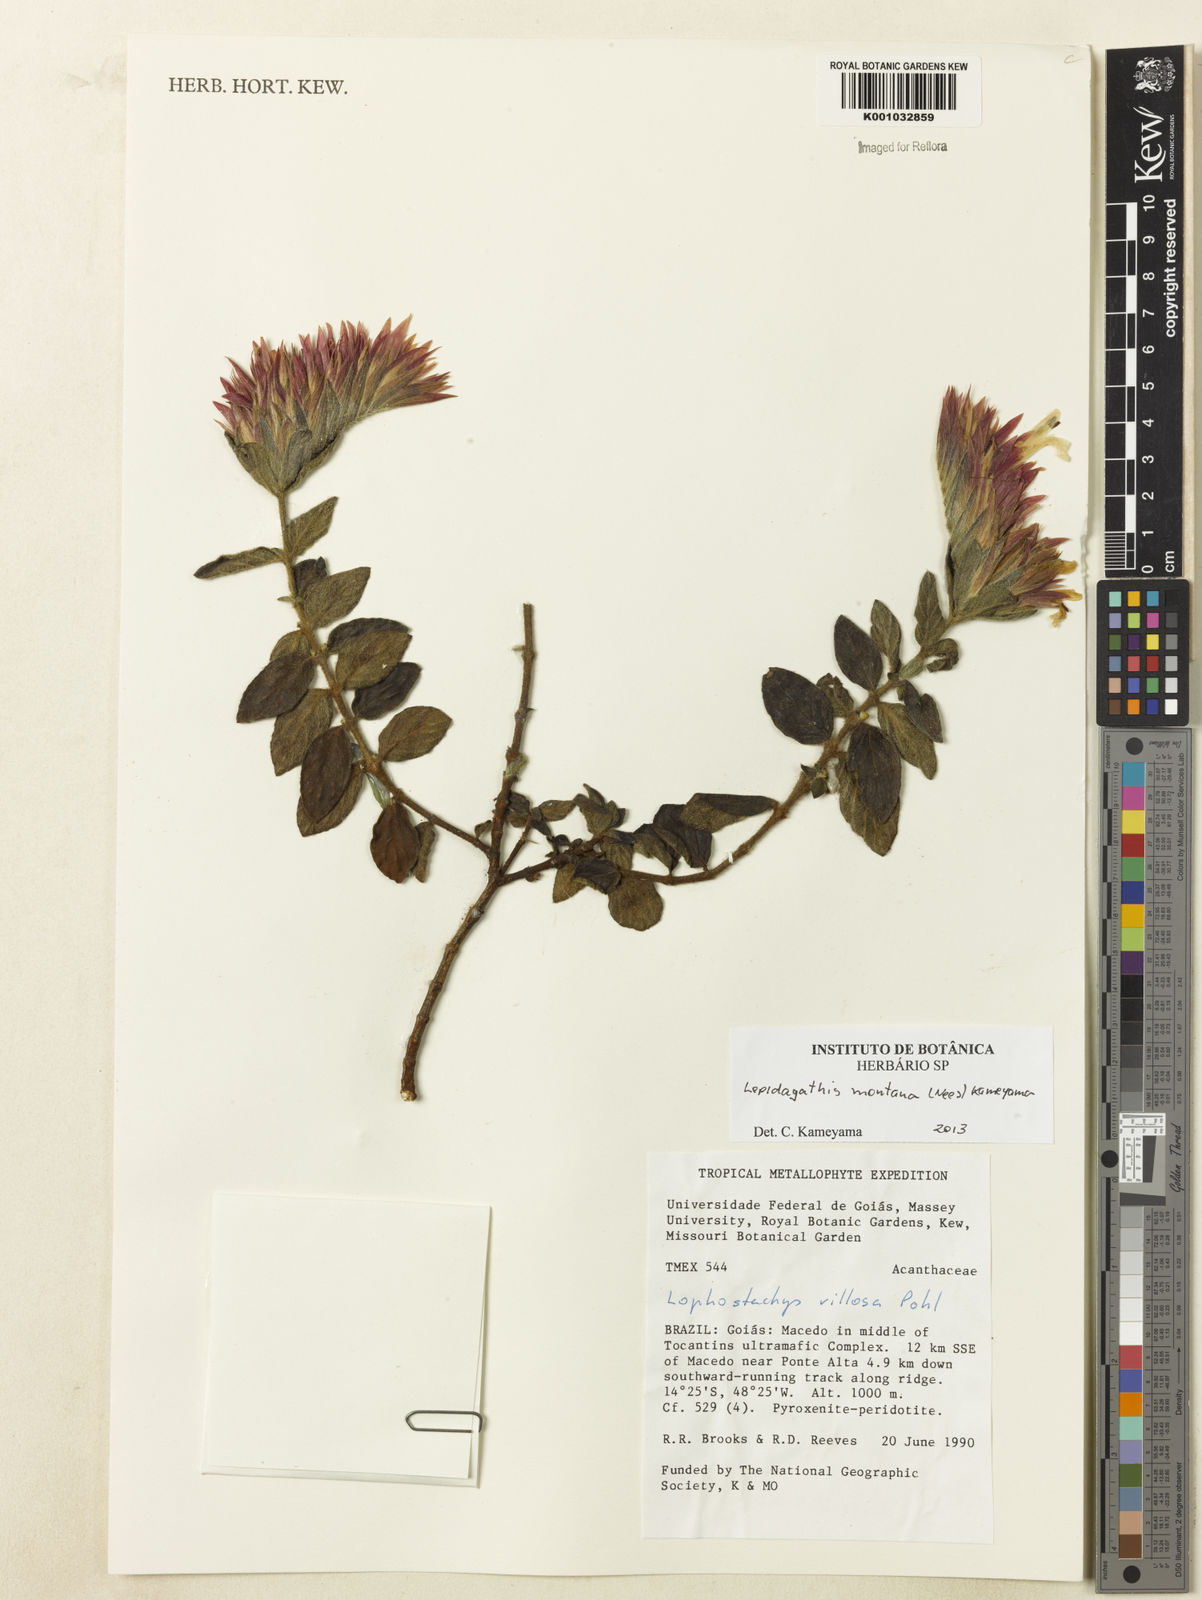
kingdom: Plantae
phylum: Tracheophyta
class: Magnoliopsida
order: Lamiales
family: Acanthaceae
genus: Lepidagathis
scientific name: Lepidagathis montana
